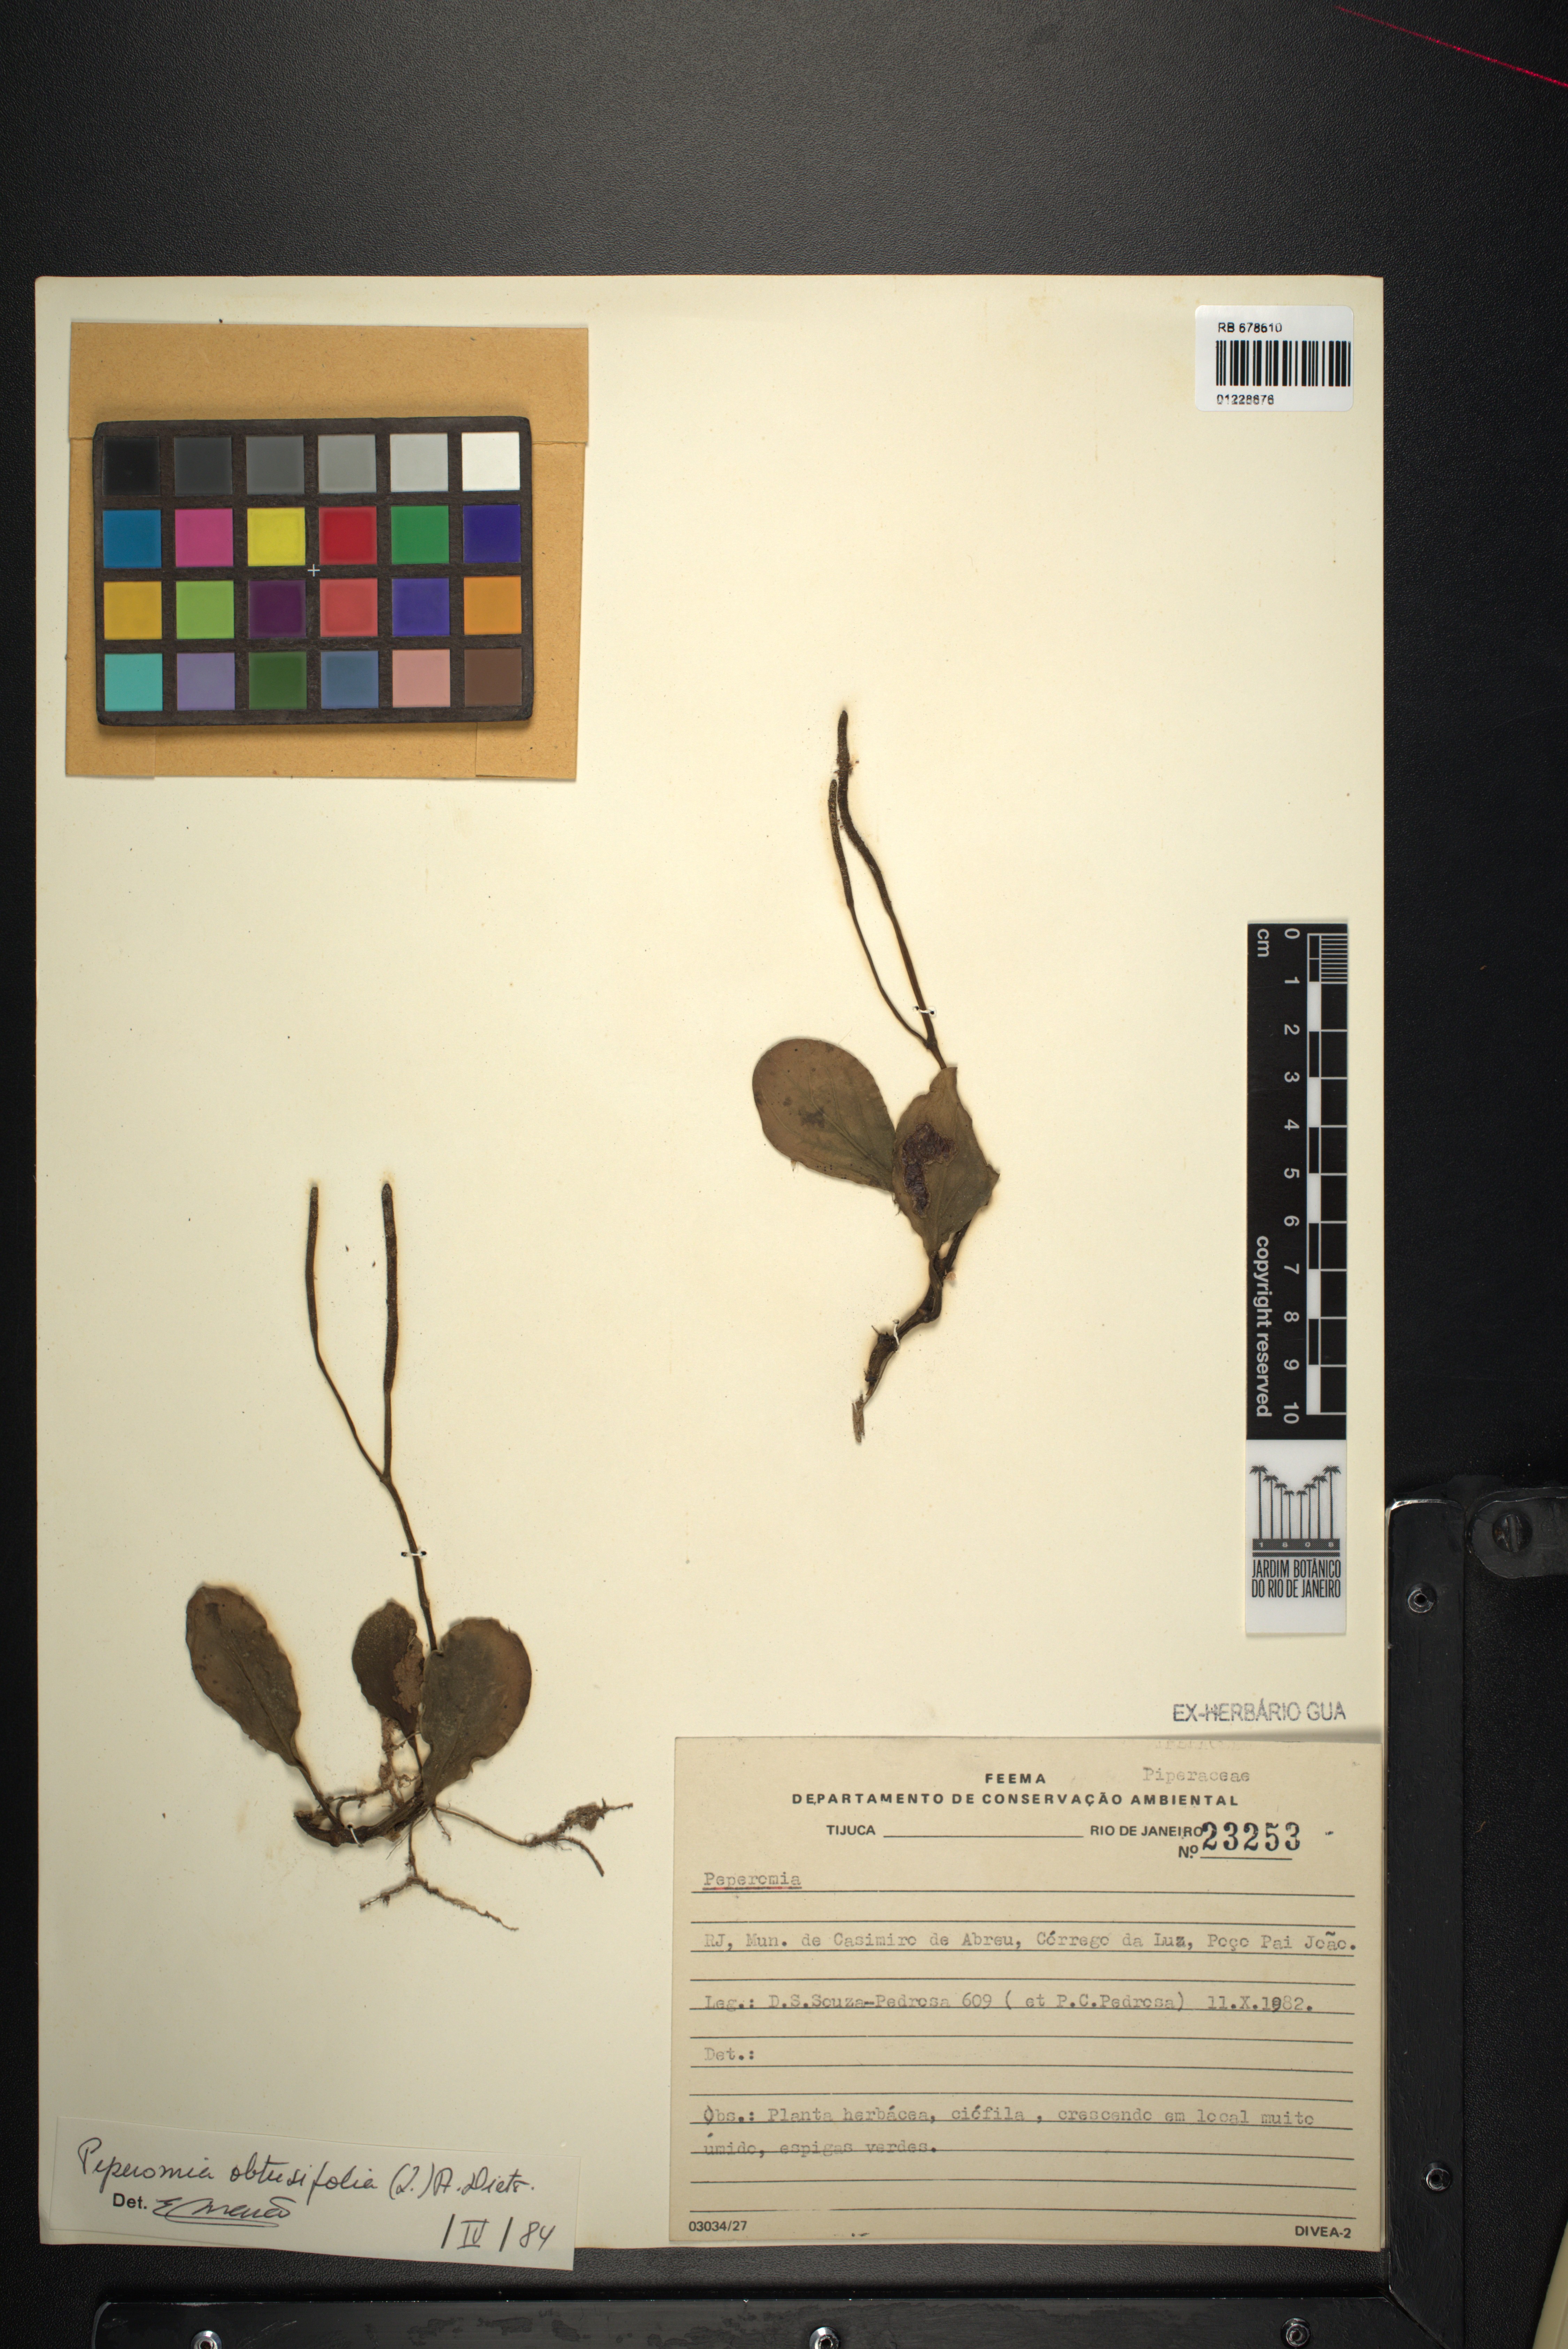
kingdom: Plantae
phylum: Tracheophyta
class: Magnoliopsida
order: Piperales
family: Piperaceae
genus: Peperomia
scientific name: Peperomia obtusifolia
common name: Baby rubberplant
